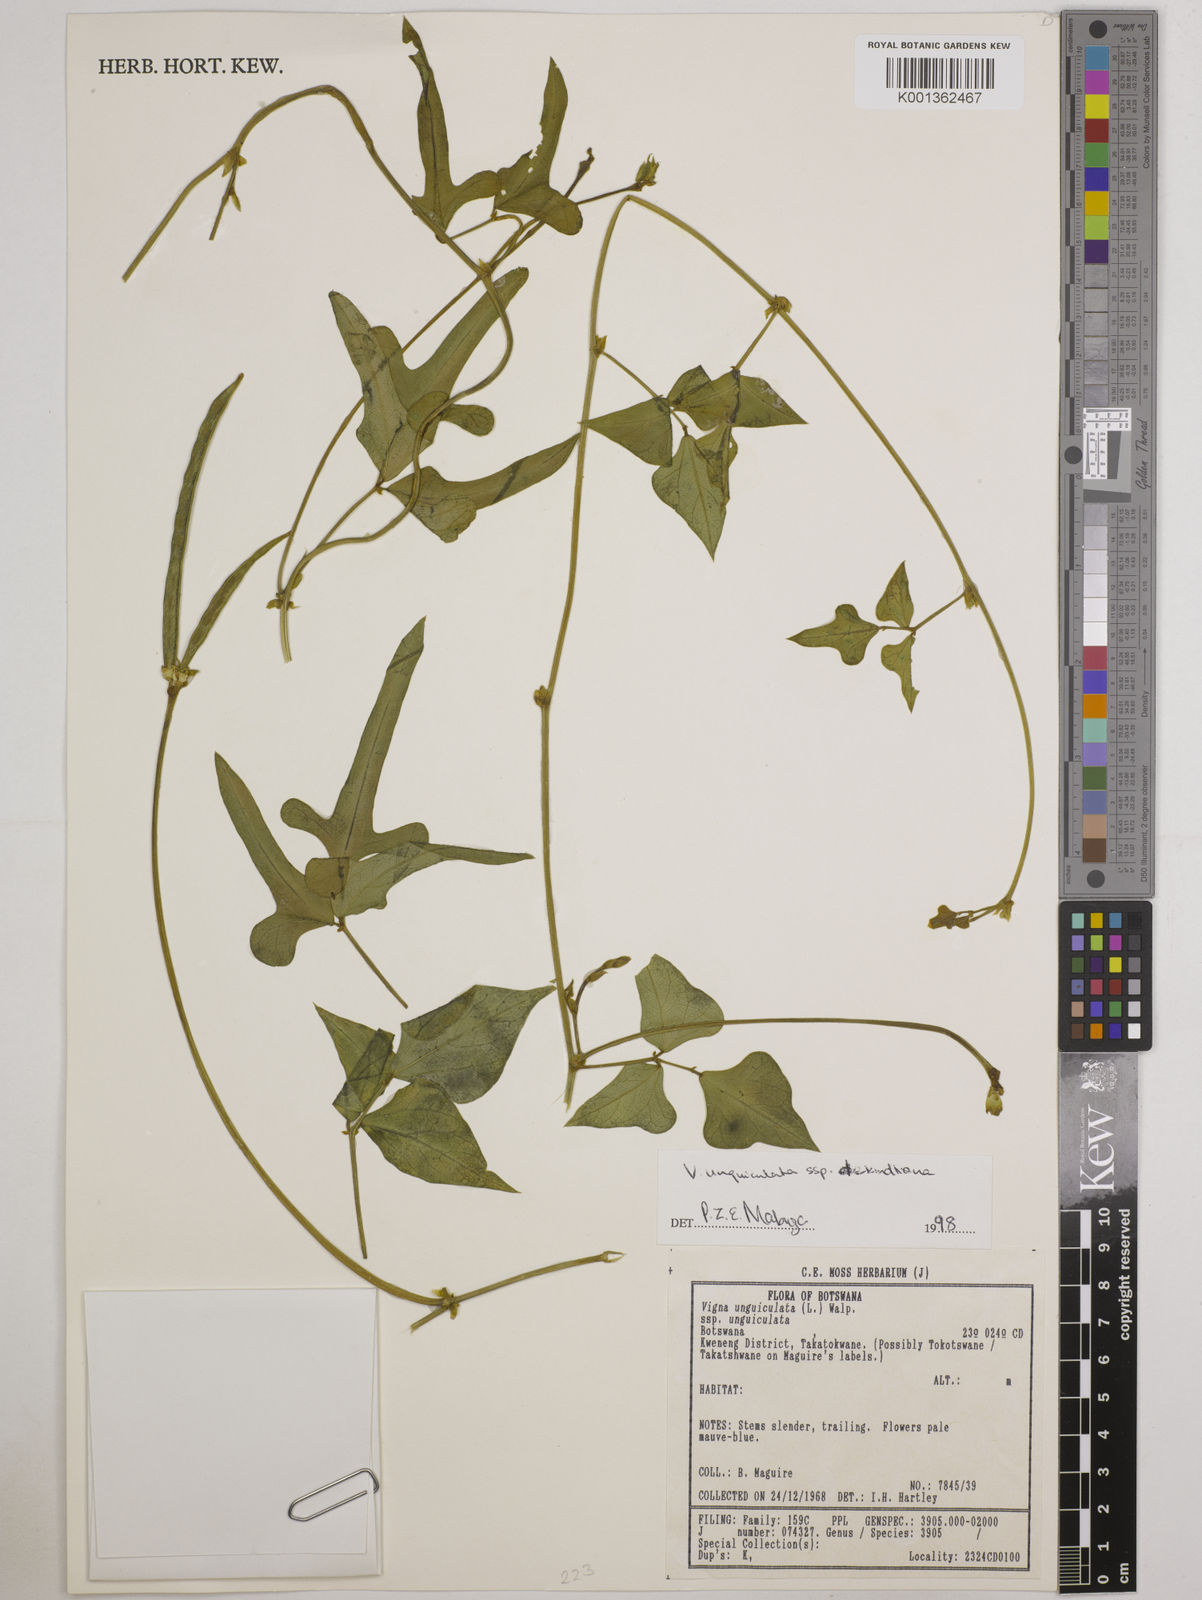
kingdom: Plantae
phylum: Tracheophyta
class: Magnoliopsida
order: Fabales
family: Fabaceae
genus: Vigna
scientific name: Vigna
